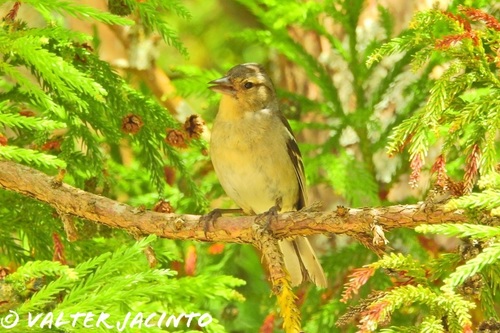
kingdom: Animalia
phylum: Chordata
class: Aves
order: Passeriformes
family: Fringillidae
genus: Fringilla
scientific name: Fringilla coelebs
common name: Common chaffinch
